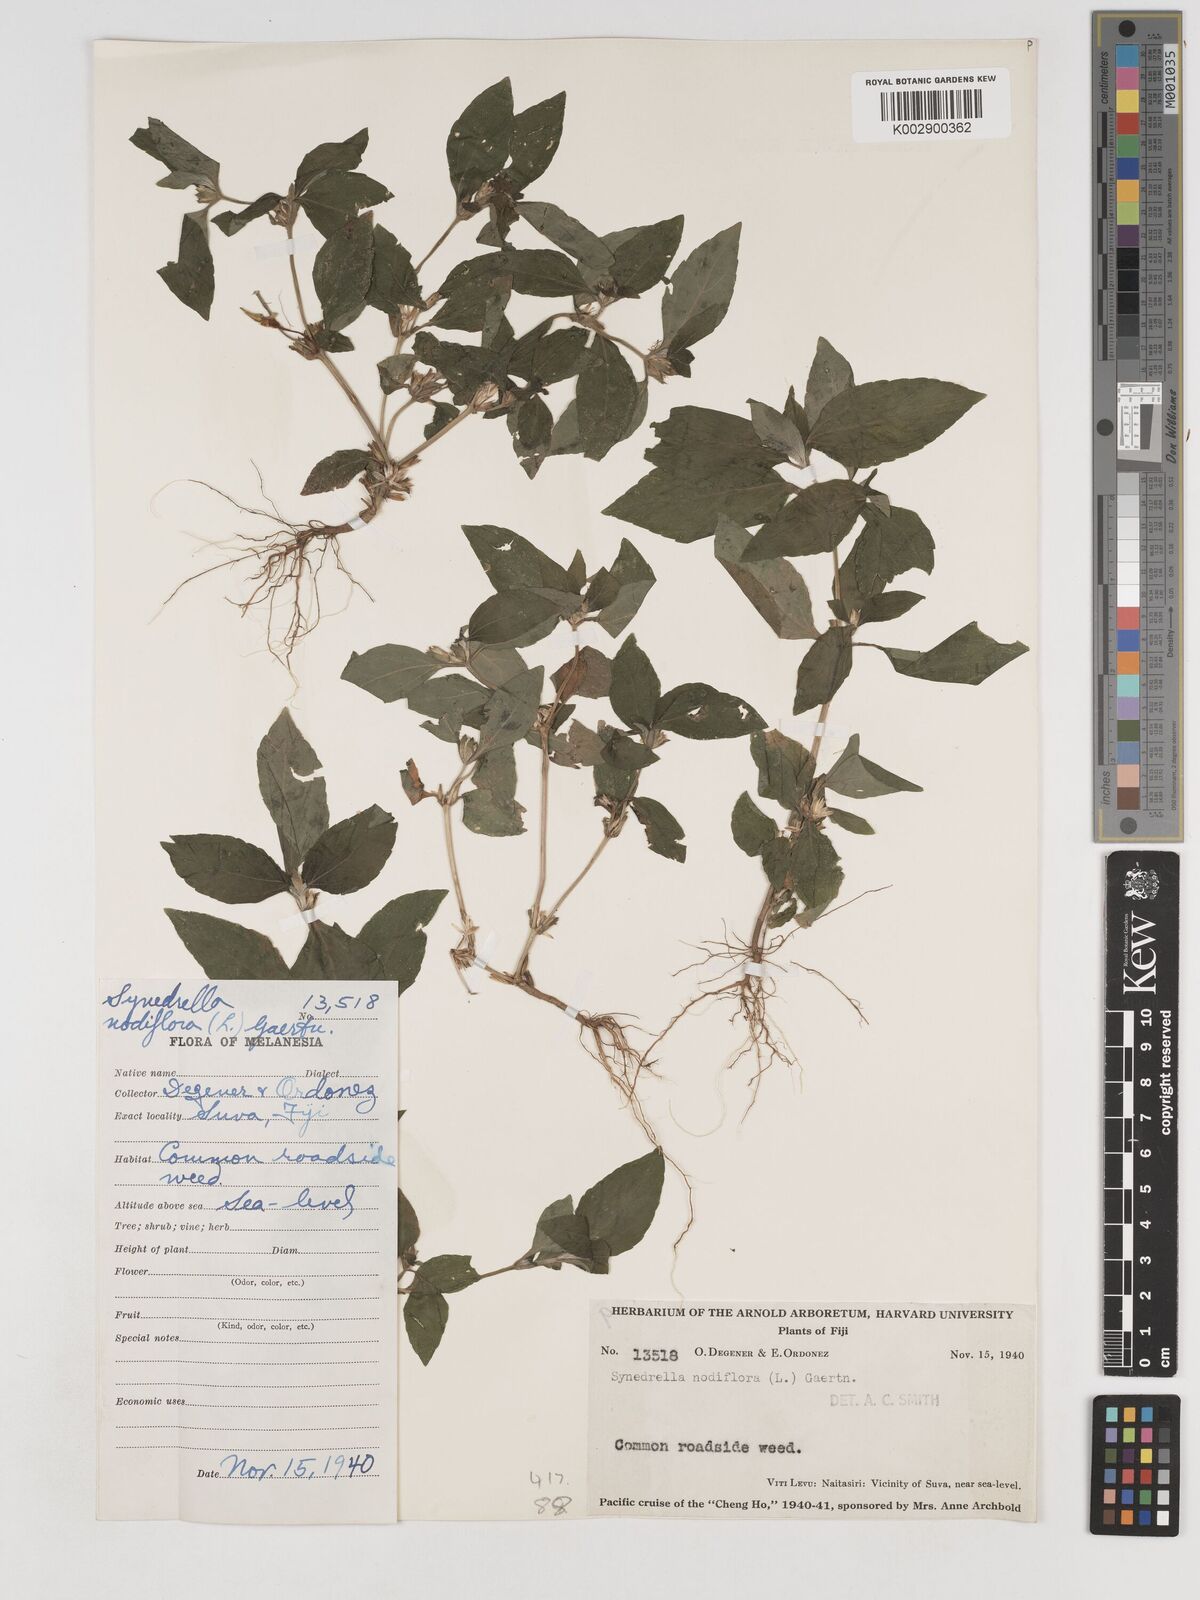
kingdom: Plantae
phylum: Tracheophyta
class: Magnoliopsida
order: Asterales
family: Asteraceae
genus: Synedrella
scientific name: Synedrella nodiflora
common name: Nodeweed
